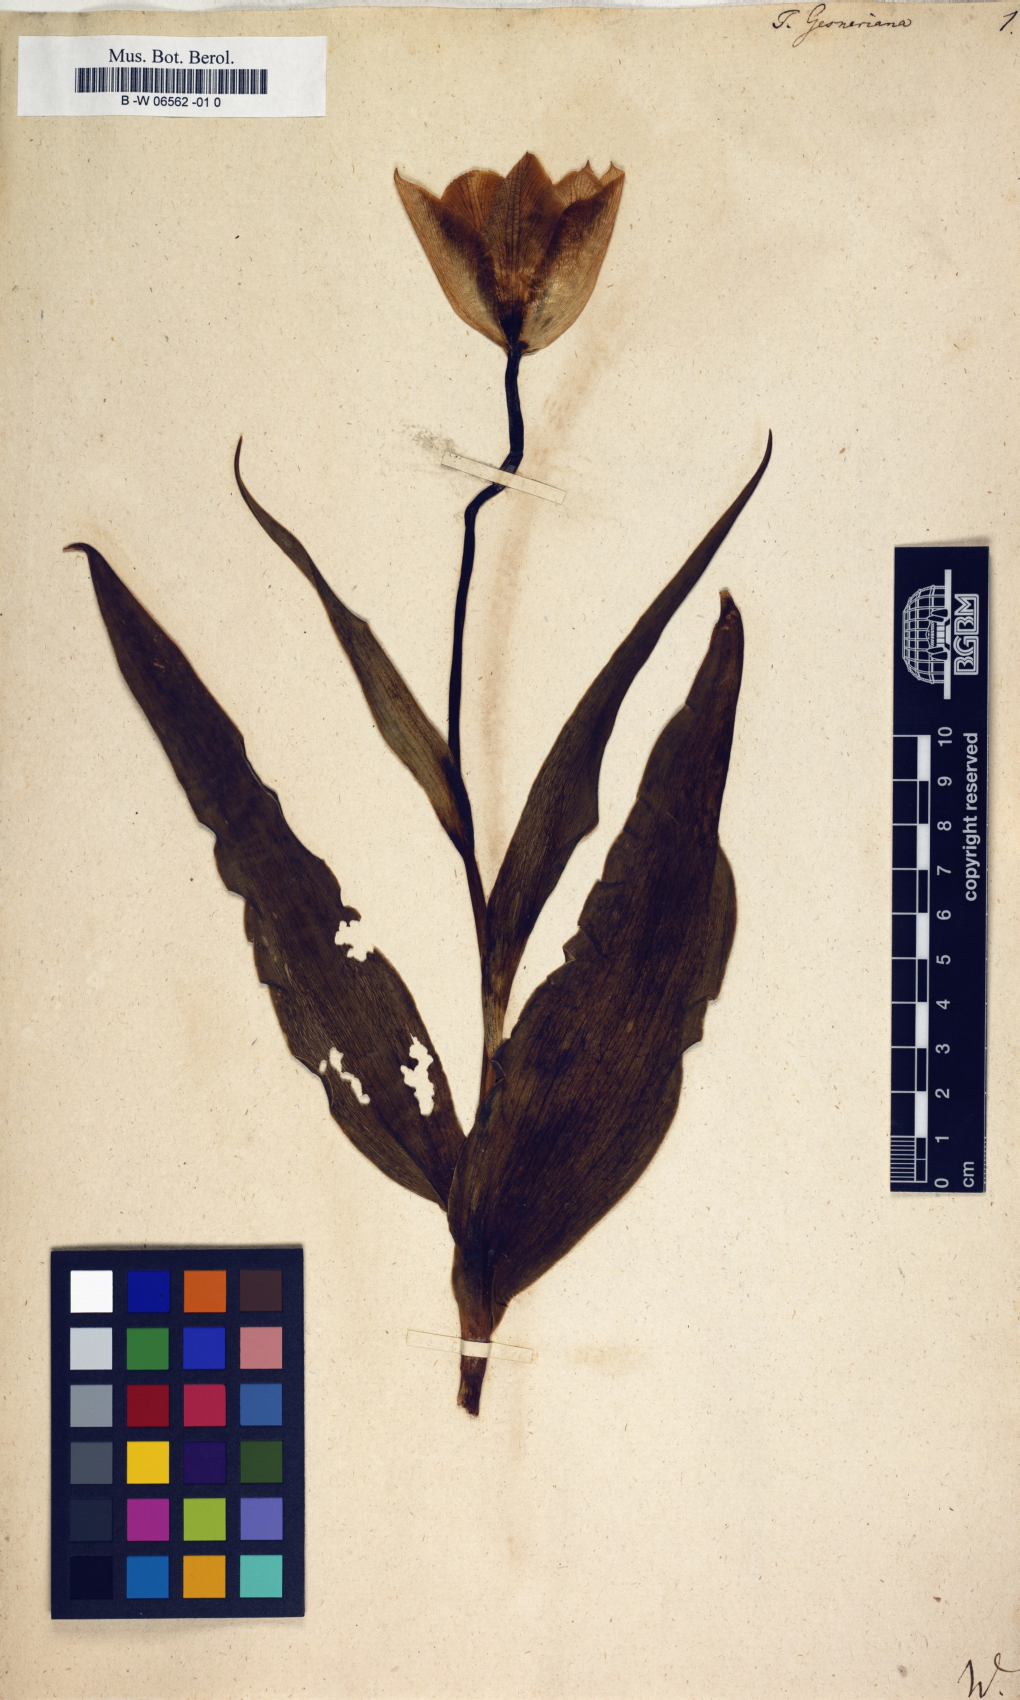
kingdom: Plantae
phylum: Tracheophyta
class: Liliopsida
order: Liliales
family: Liliaceae
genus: Tulipa
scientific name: Tulipa gesneriana
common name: Garden tulip
